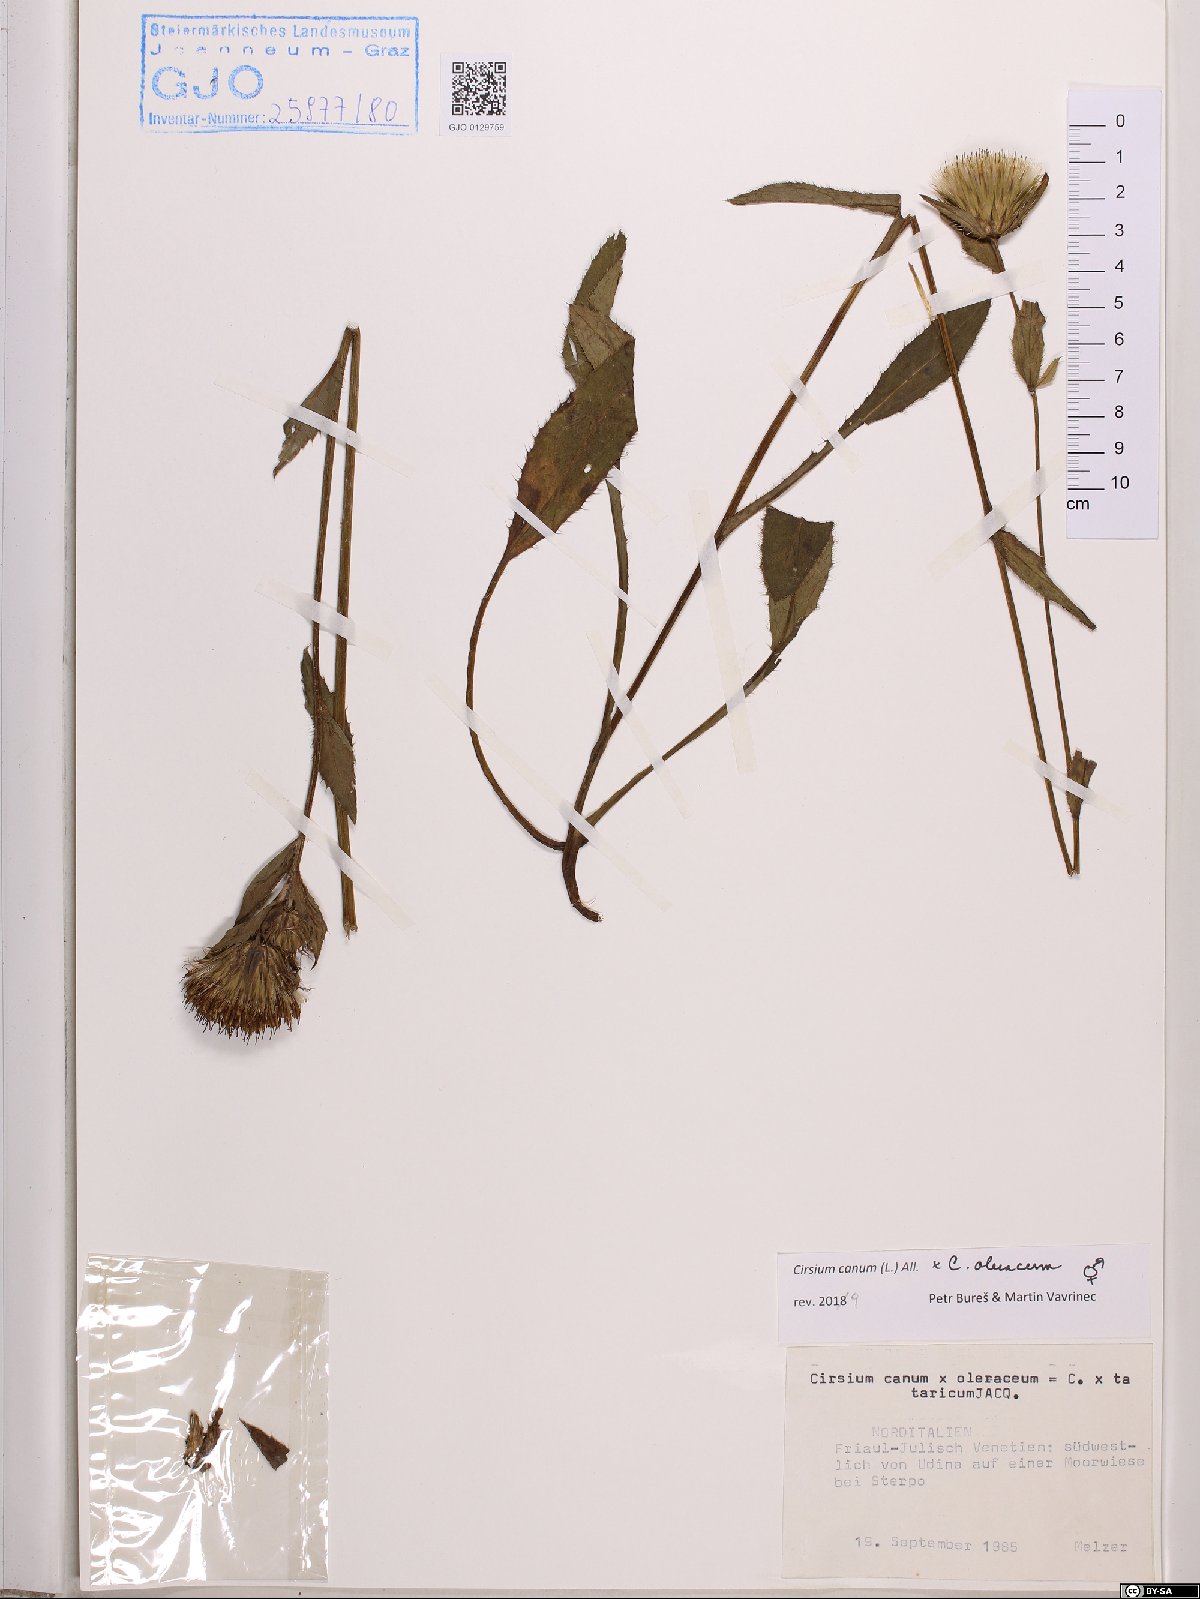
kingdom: Plantae
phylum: Tracheophyta
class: Magnoliopsida
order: Asterales
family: Asteraceae
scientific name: Asteraceae
